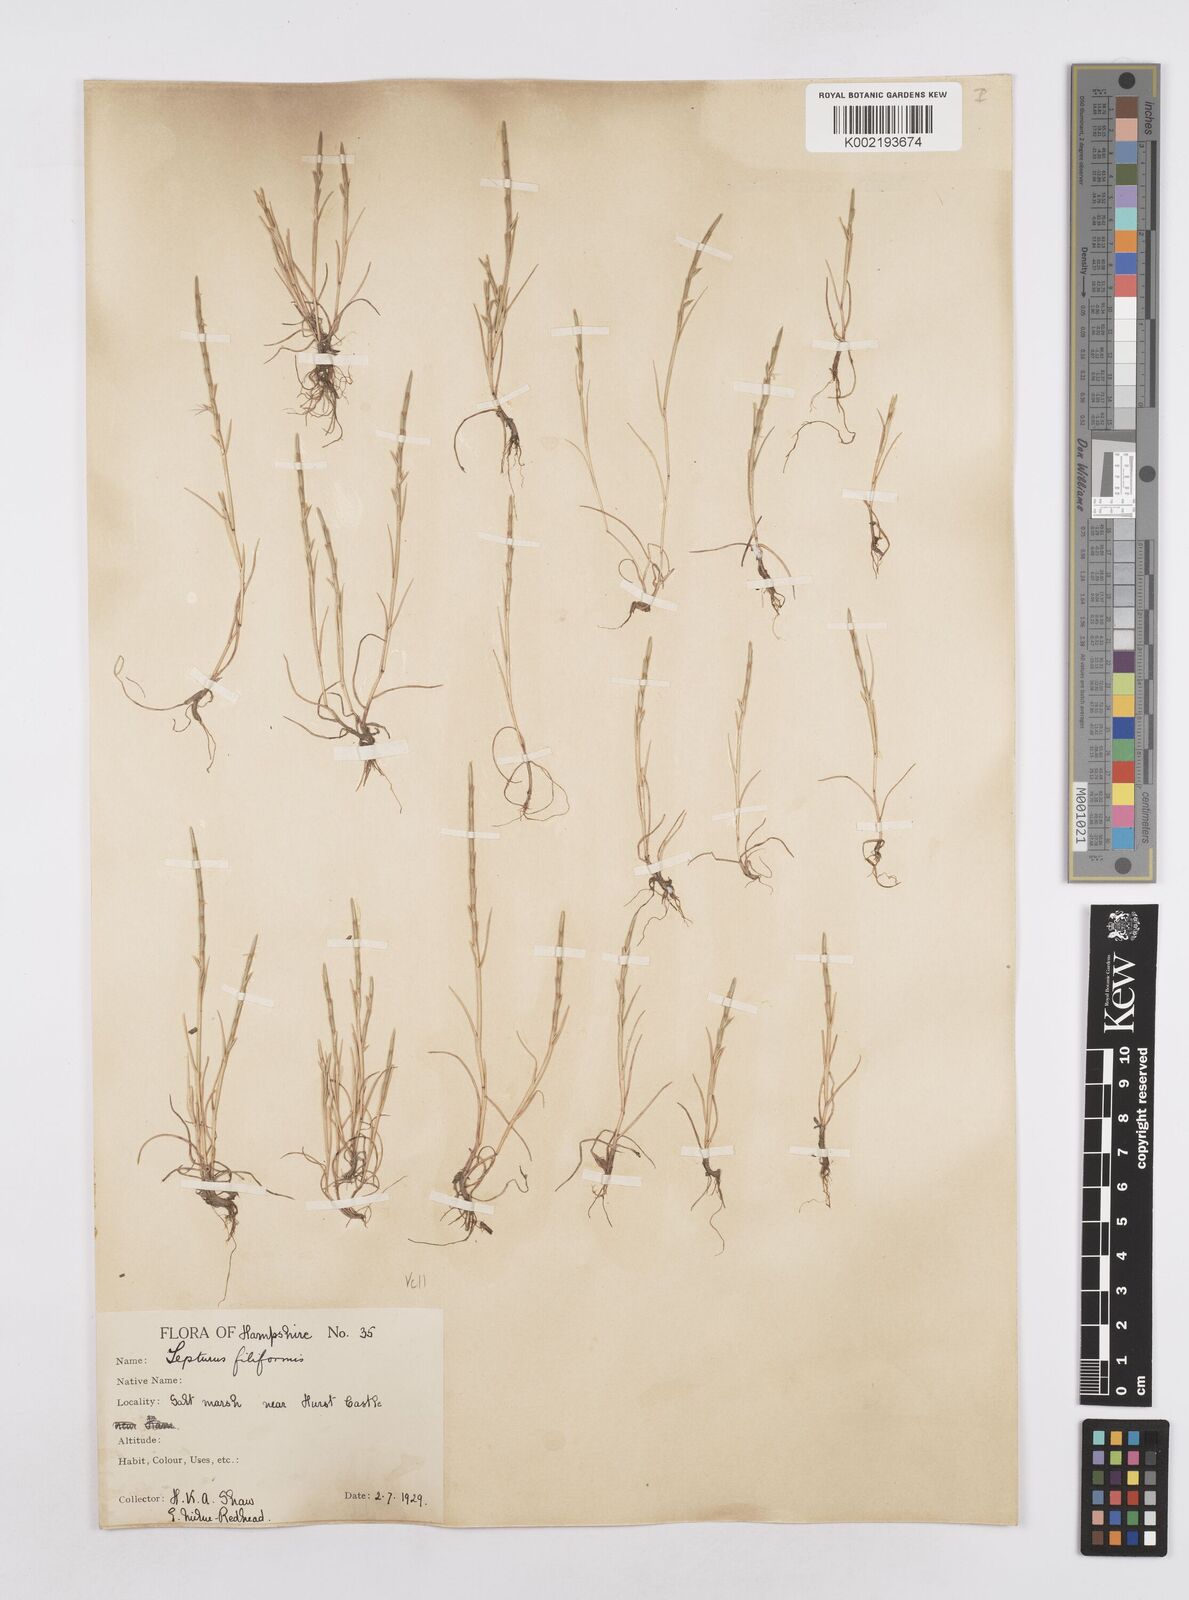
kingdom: Plantae
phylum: Tracheophyta
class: Liliopsida
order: Poales
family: Poaceae
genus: Parapholis
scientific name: Parapholis strigosa
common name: Hard-grass
